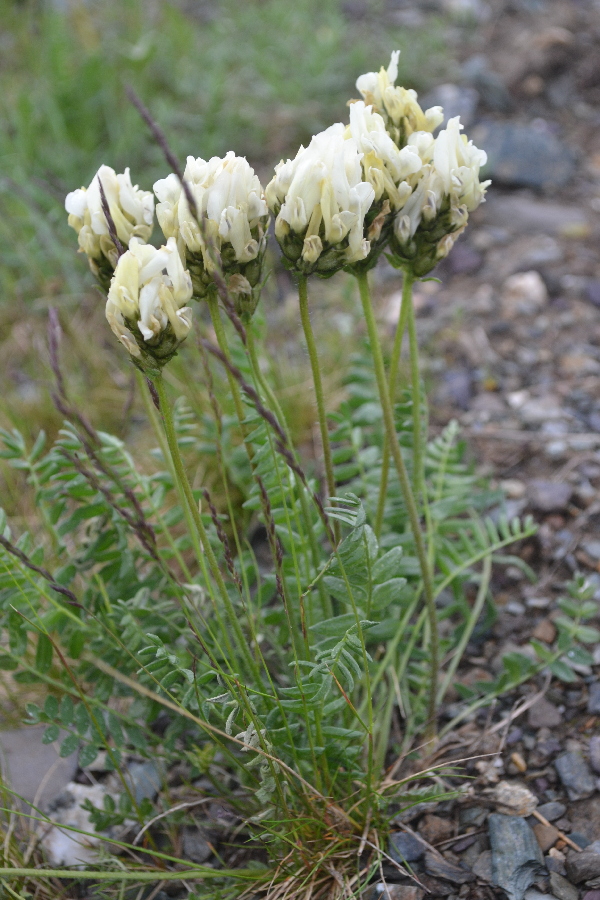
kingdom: Plantae
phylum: Tracheophyta
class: Magnoliopsida
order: Fabales
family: Fabaceae
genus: Oxytropis
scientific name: Oxytropis sordida
